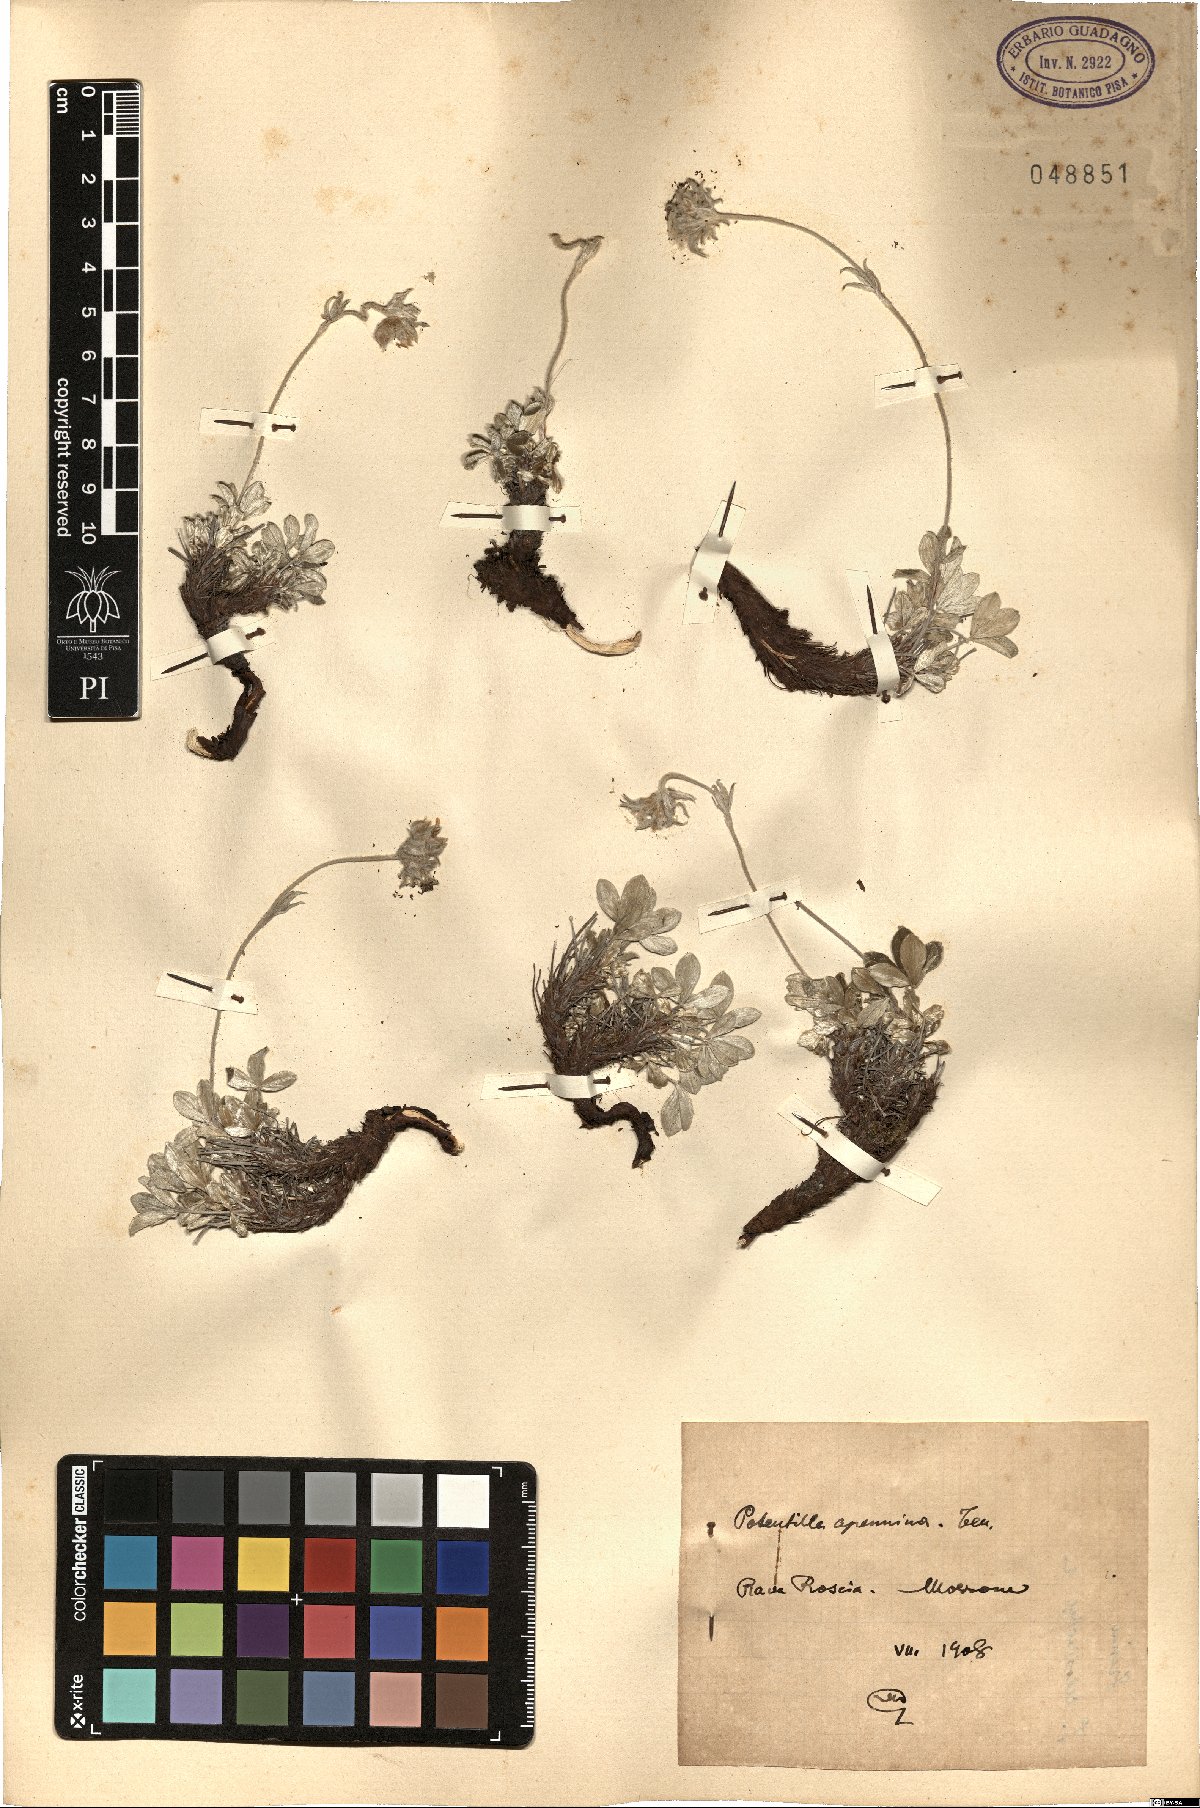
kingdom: Plantae
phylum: Tracheophyta
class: Magnoliopsida
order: Rosales
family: Rosaceae
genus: Potentilla
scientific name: Potentilla apennina
